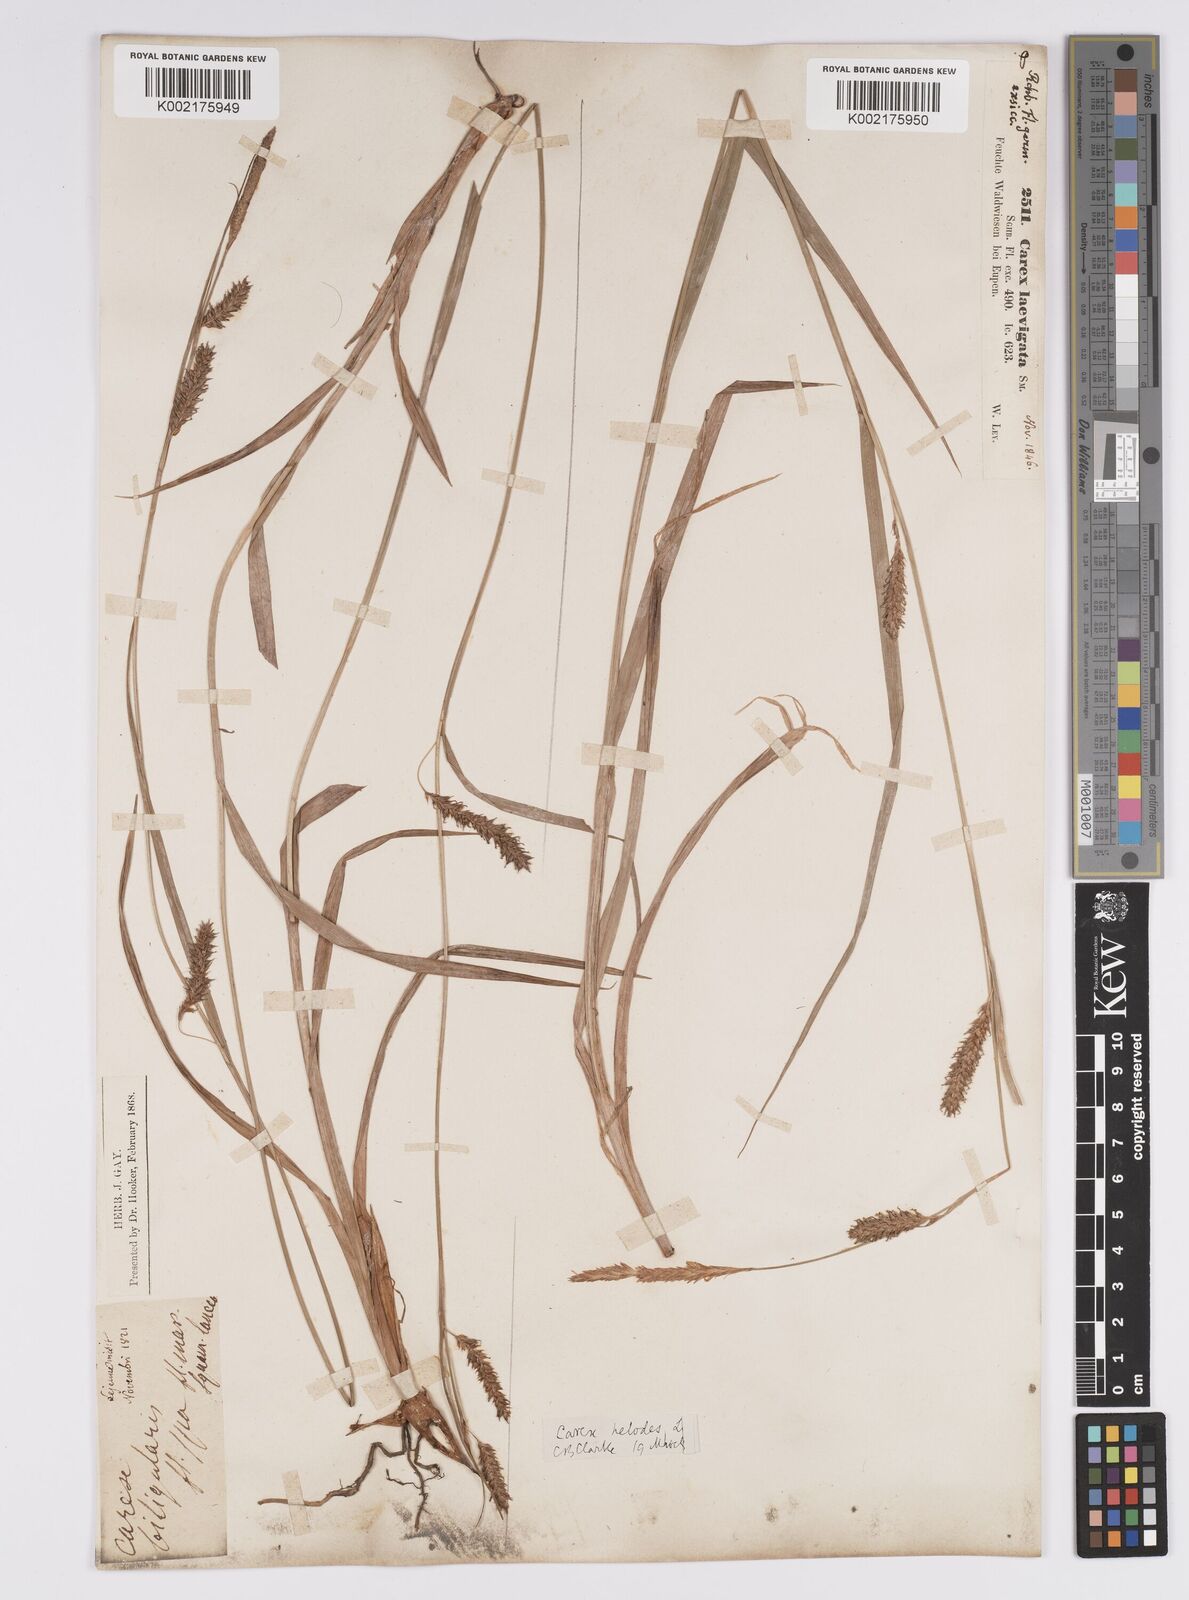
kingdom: Plantae
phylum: Tracheophyta
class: Liliopsida
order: Poales
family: Cyperaceae
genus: Carex
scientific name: Carex laevigata
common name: Smooth-stalked sedge
